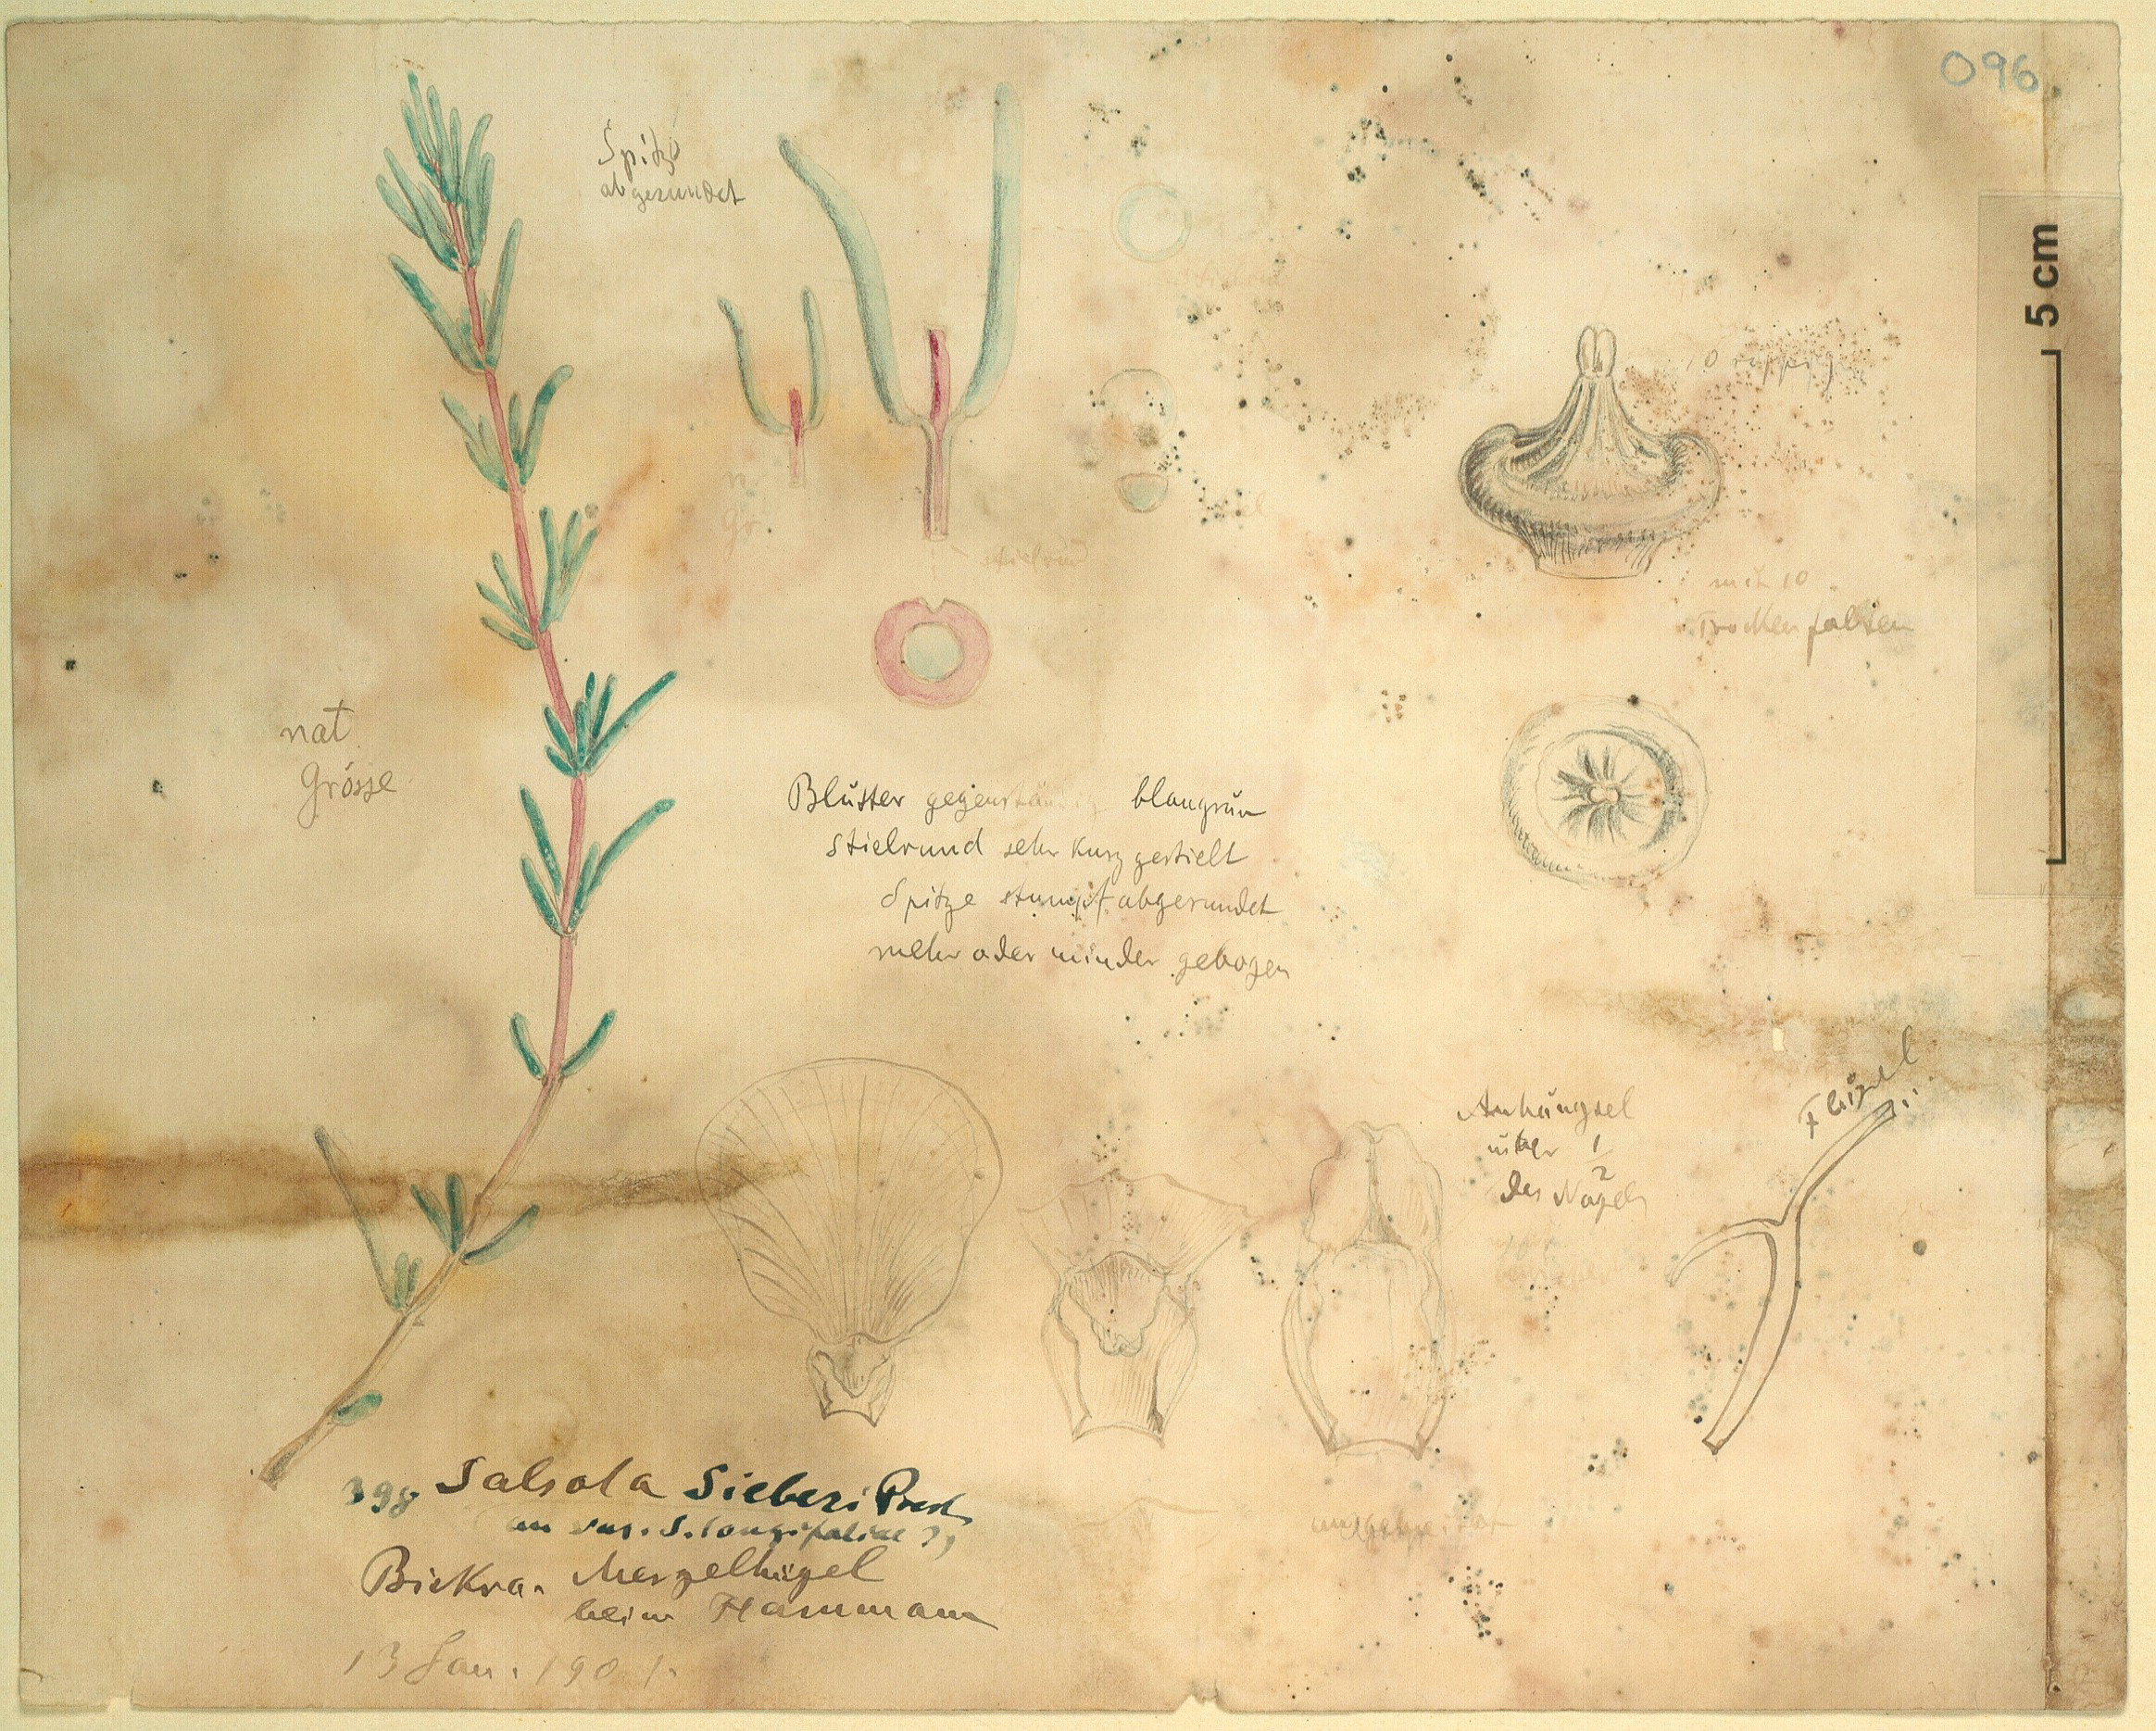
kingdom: Plantae
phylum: Tracheophyta
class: Magnoliopsida
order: Caryophyllales
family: Amaranthaceae
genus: Soda
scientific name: Soda
